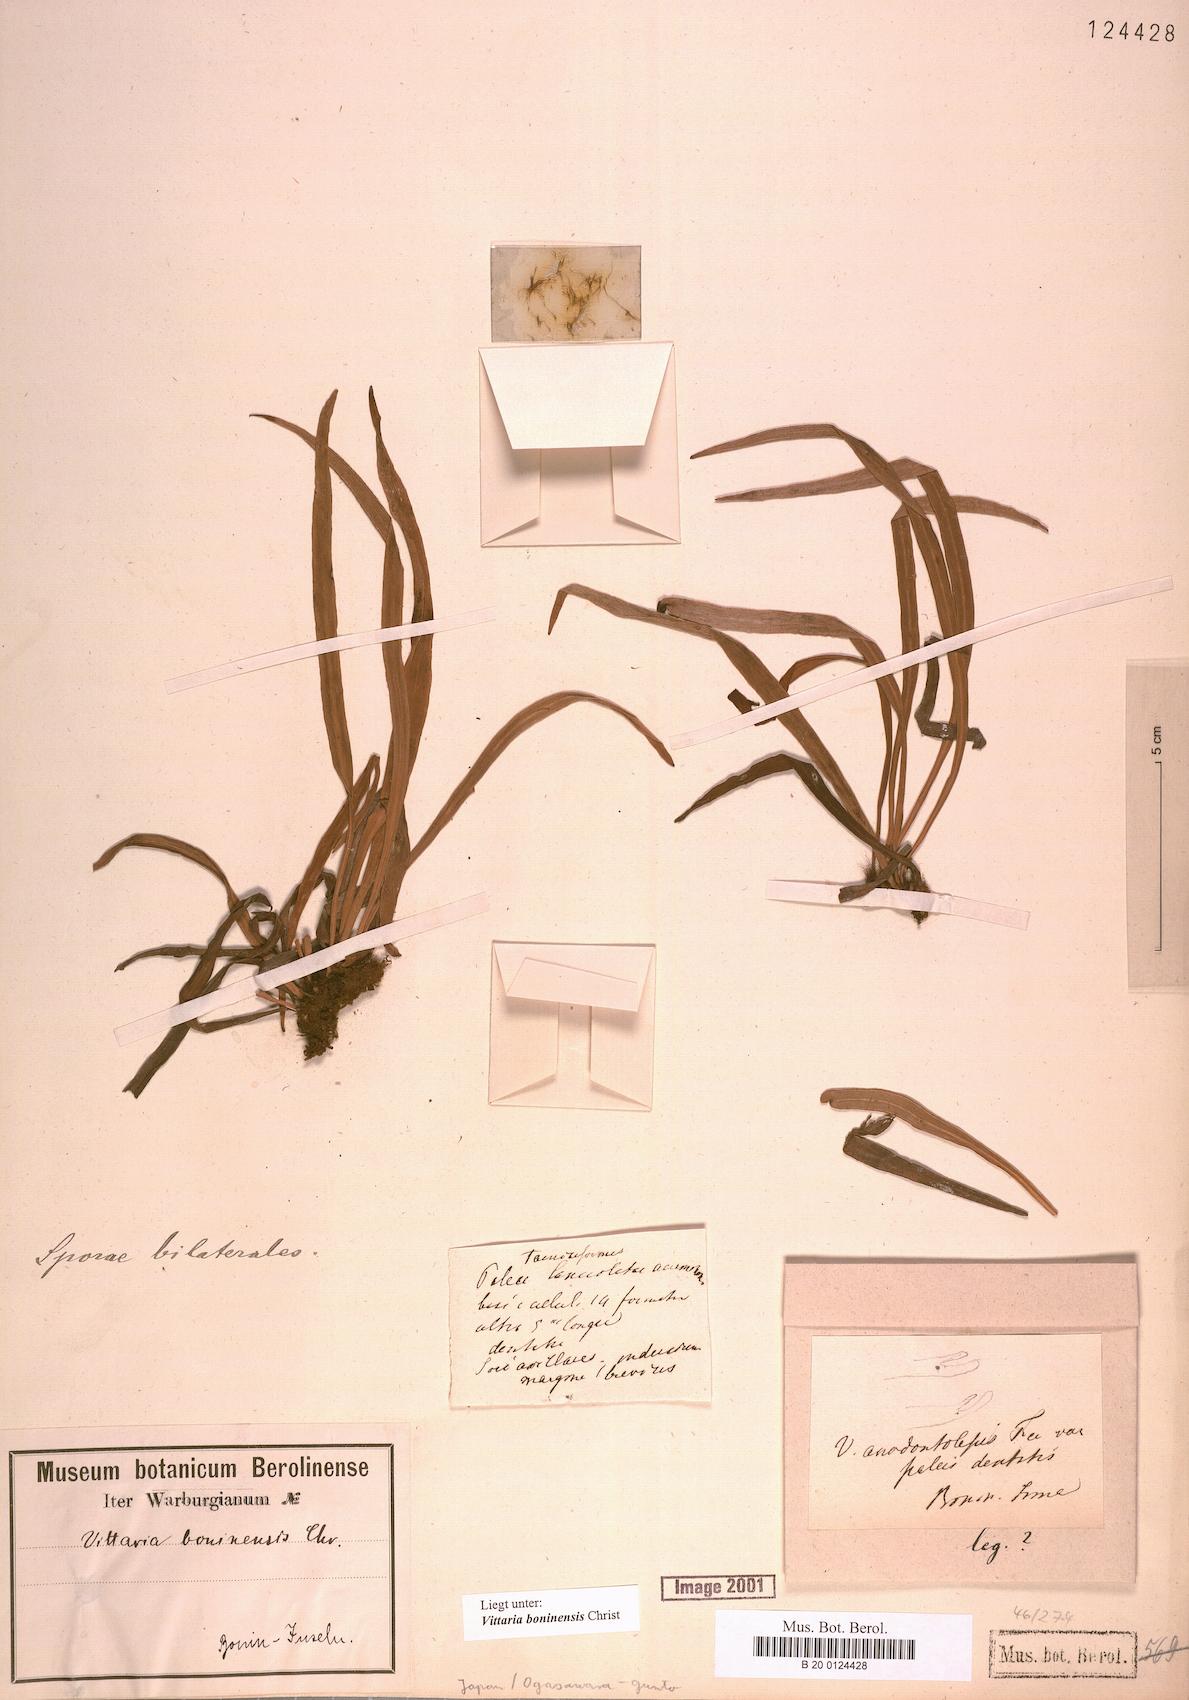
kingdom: Plantae
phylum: Tracheophyta
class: Polypodiopsida
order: Polypodiales
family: Pteridaceae
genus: Haplopteris
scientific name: Haplopteris elongata
